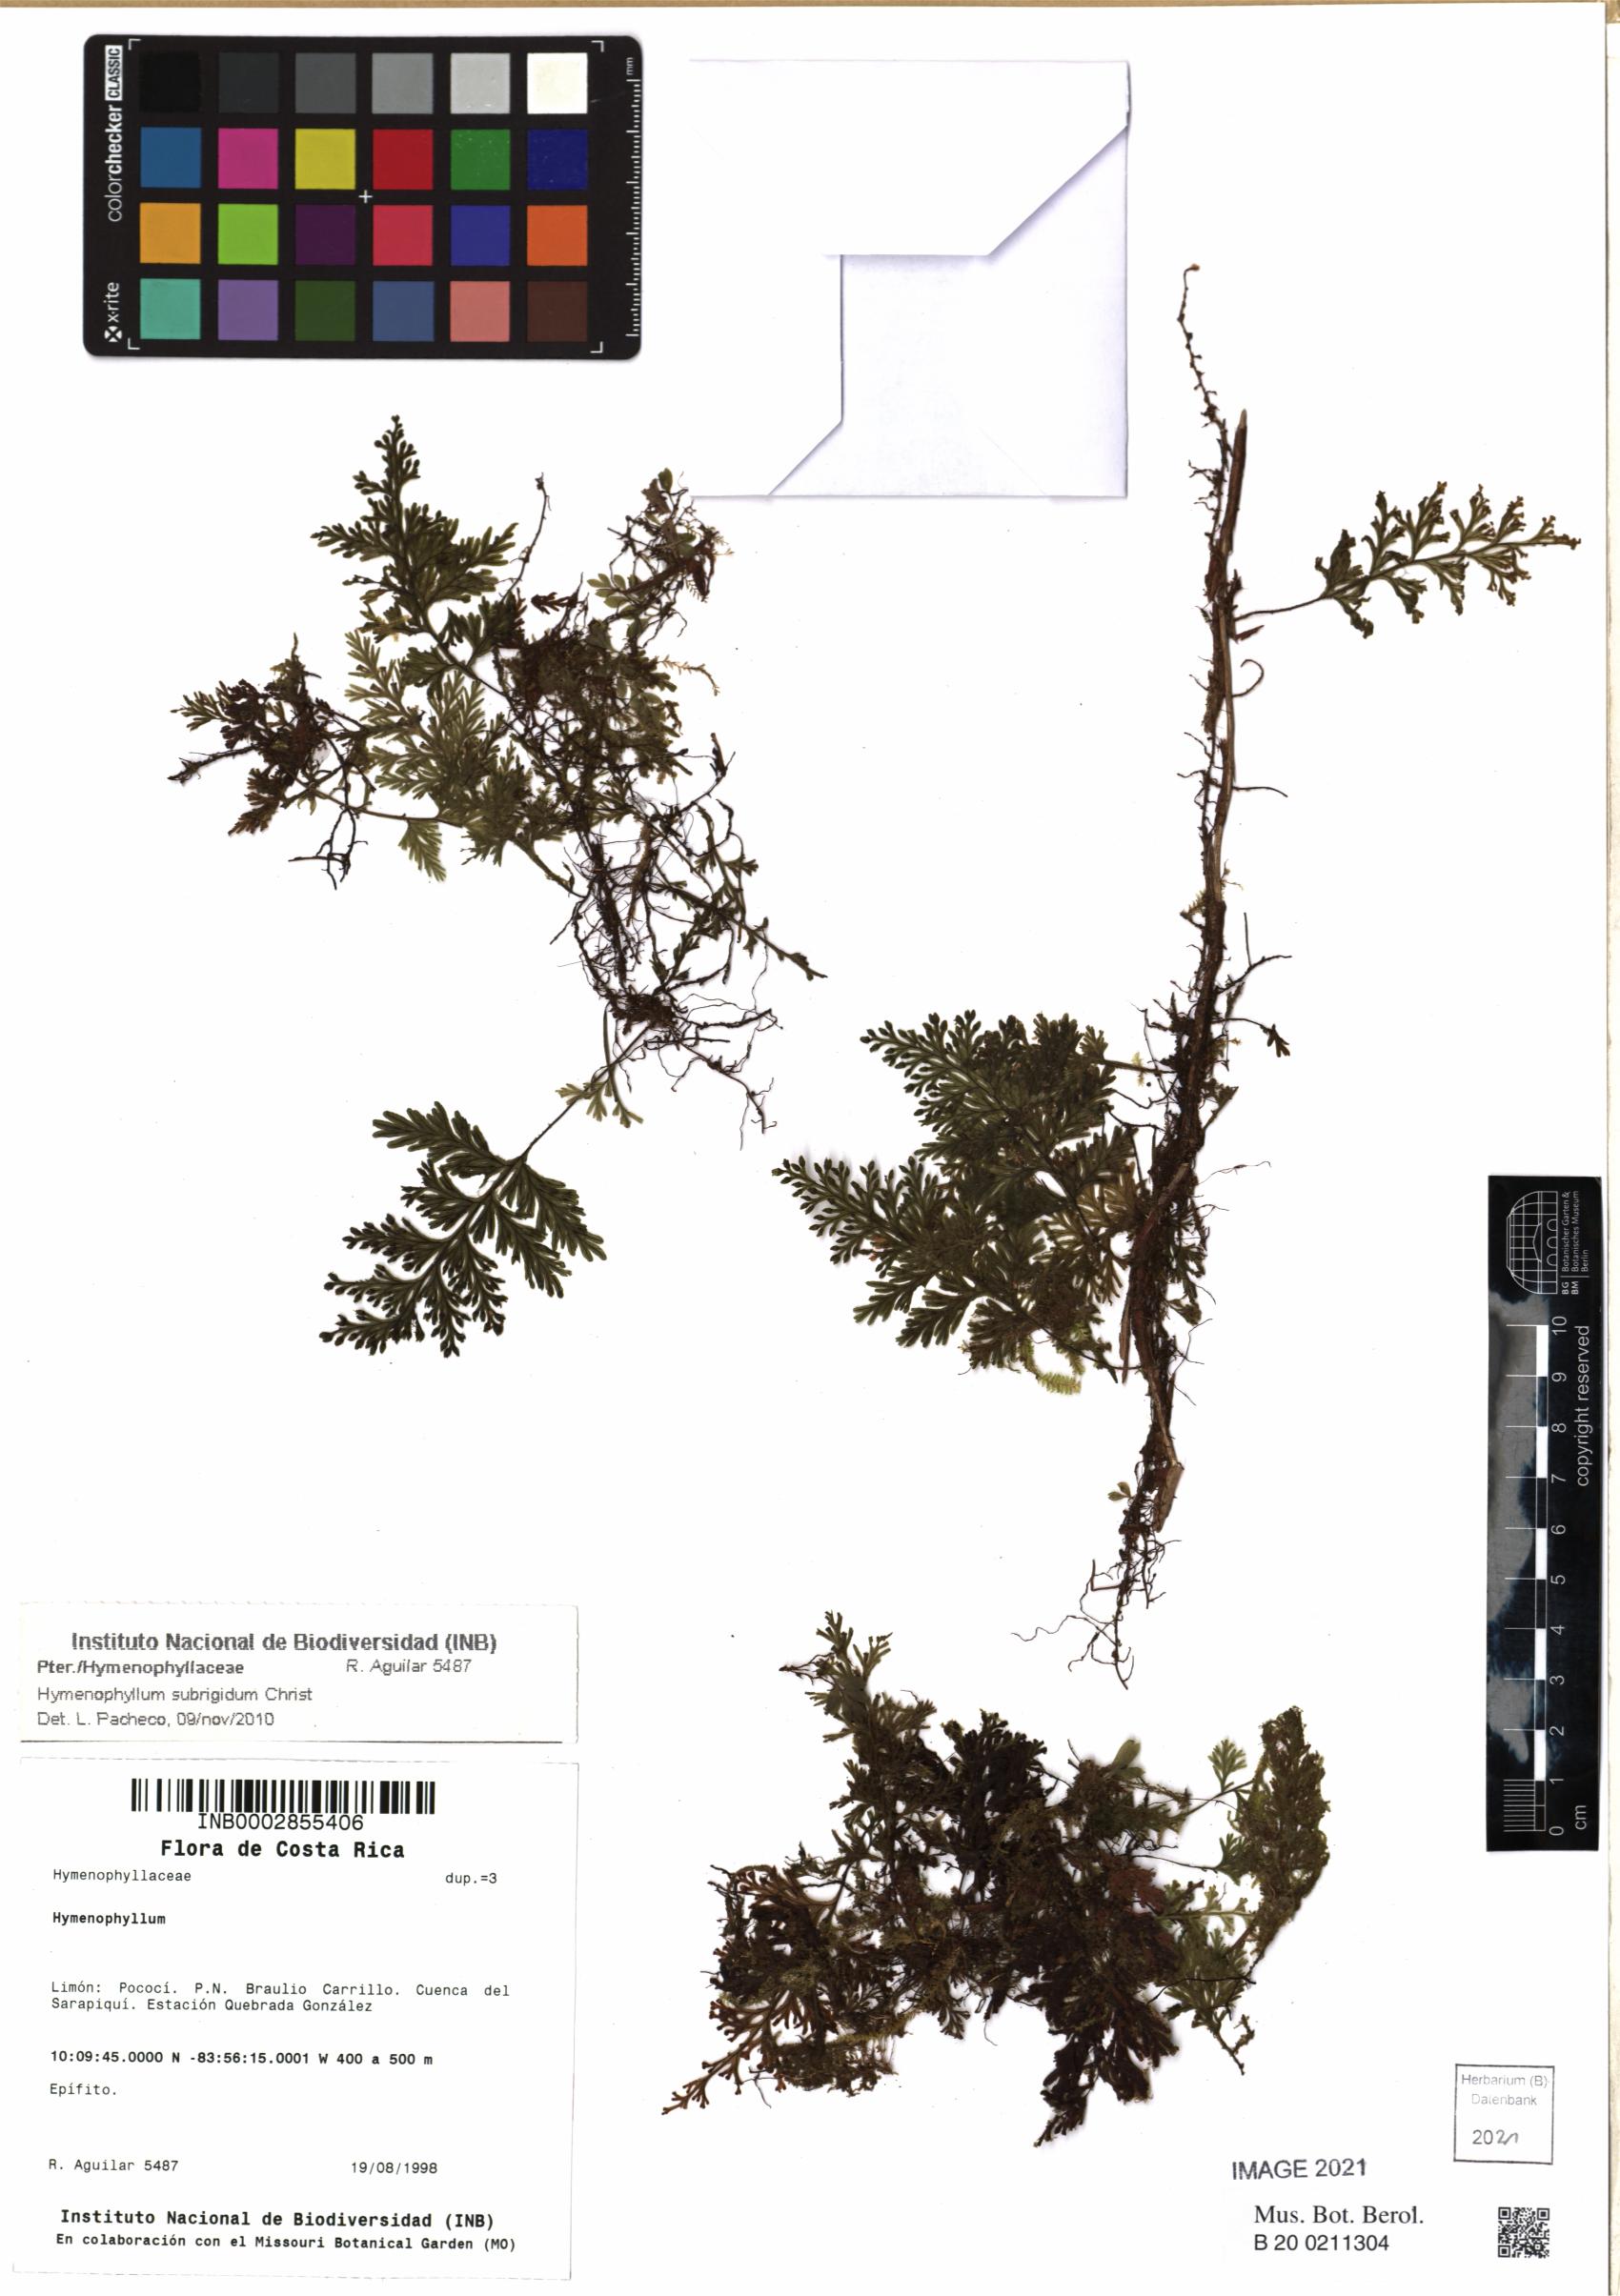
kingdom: Plantae
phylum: Tracheophyta
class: Polypodiopsida
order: Hymenophyllales
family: Hymenophyllaceae
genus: Hymenophyllum
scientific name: Hymenophyllum subrigidum
